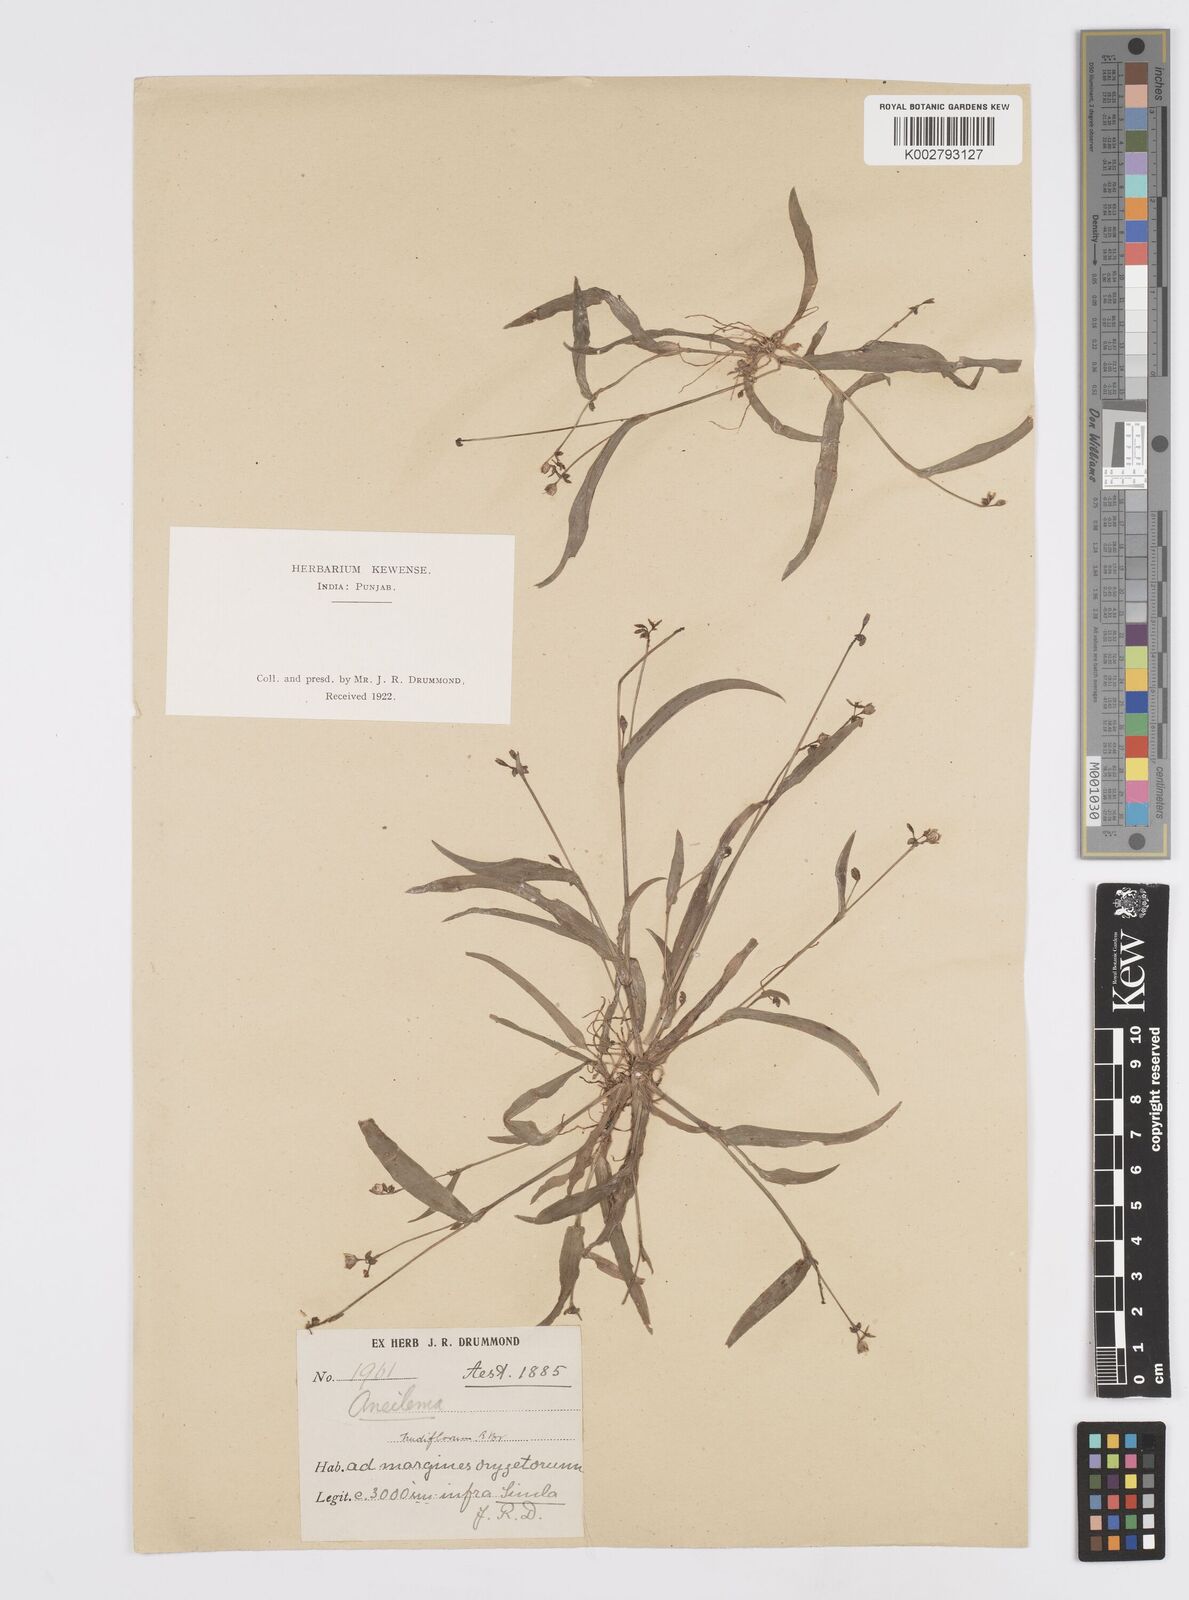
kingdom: Plantae
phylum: Tracheophyta
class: Liliopsida
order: Commelinales
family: Commelinaceae
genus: Murdannia
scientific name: Murdannia nudiflora
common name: Nakedstem dewflower
